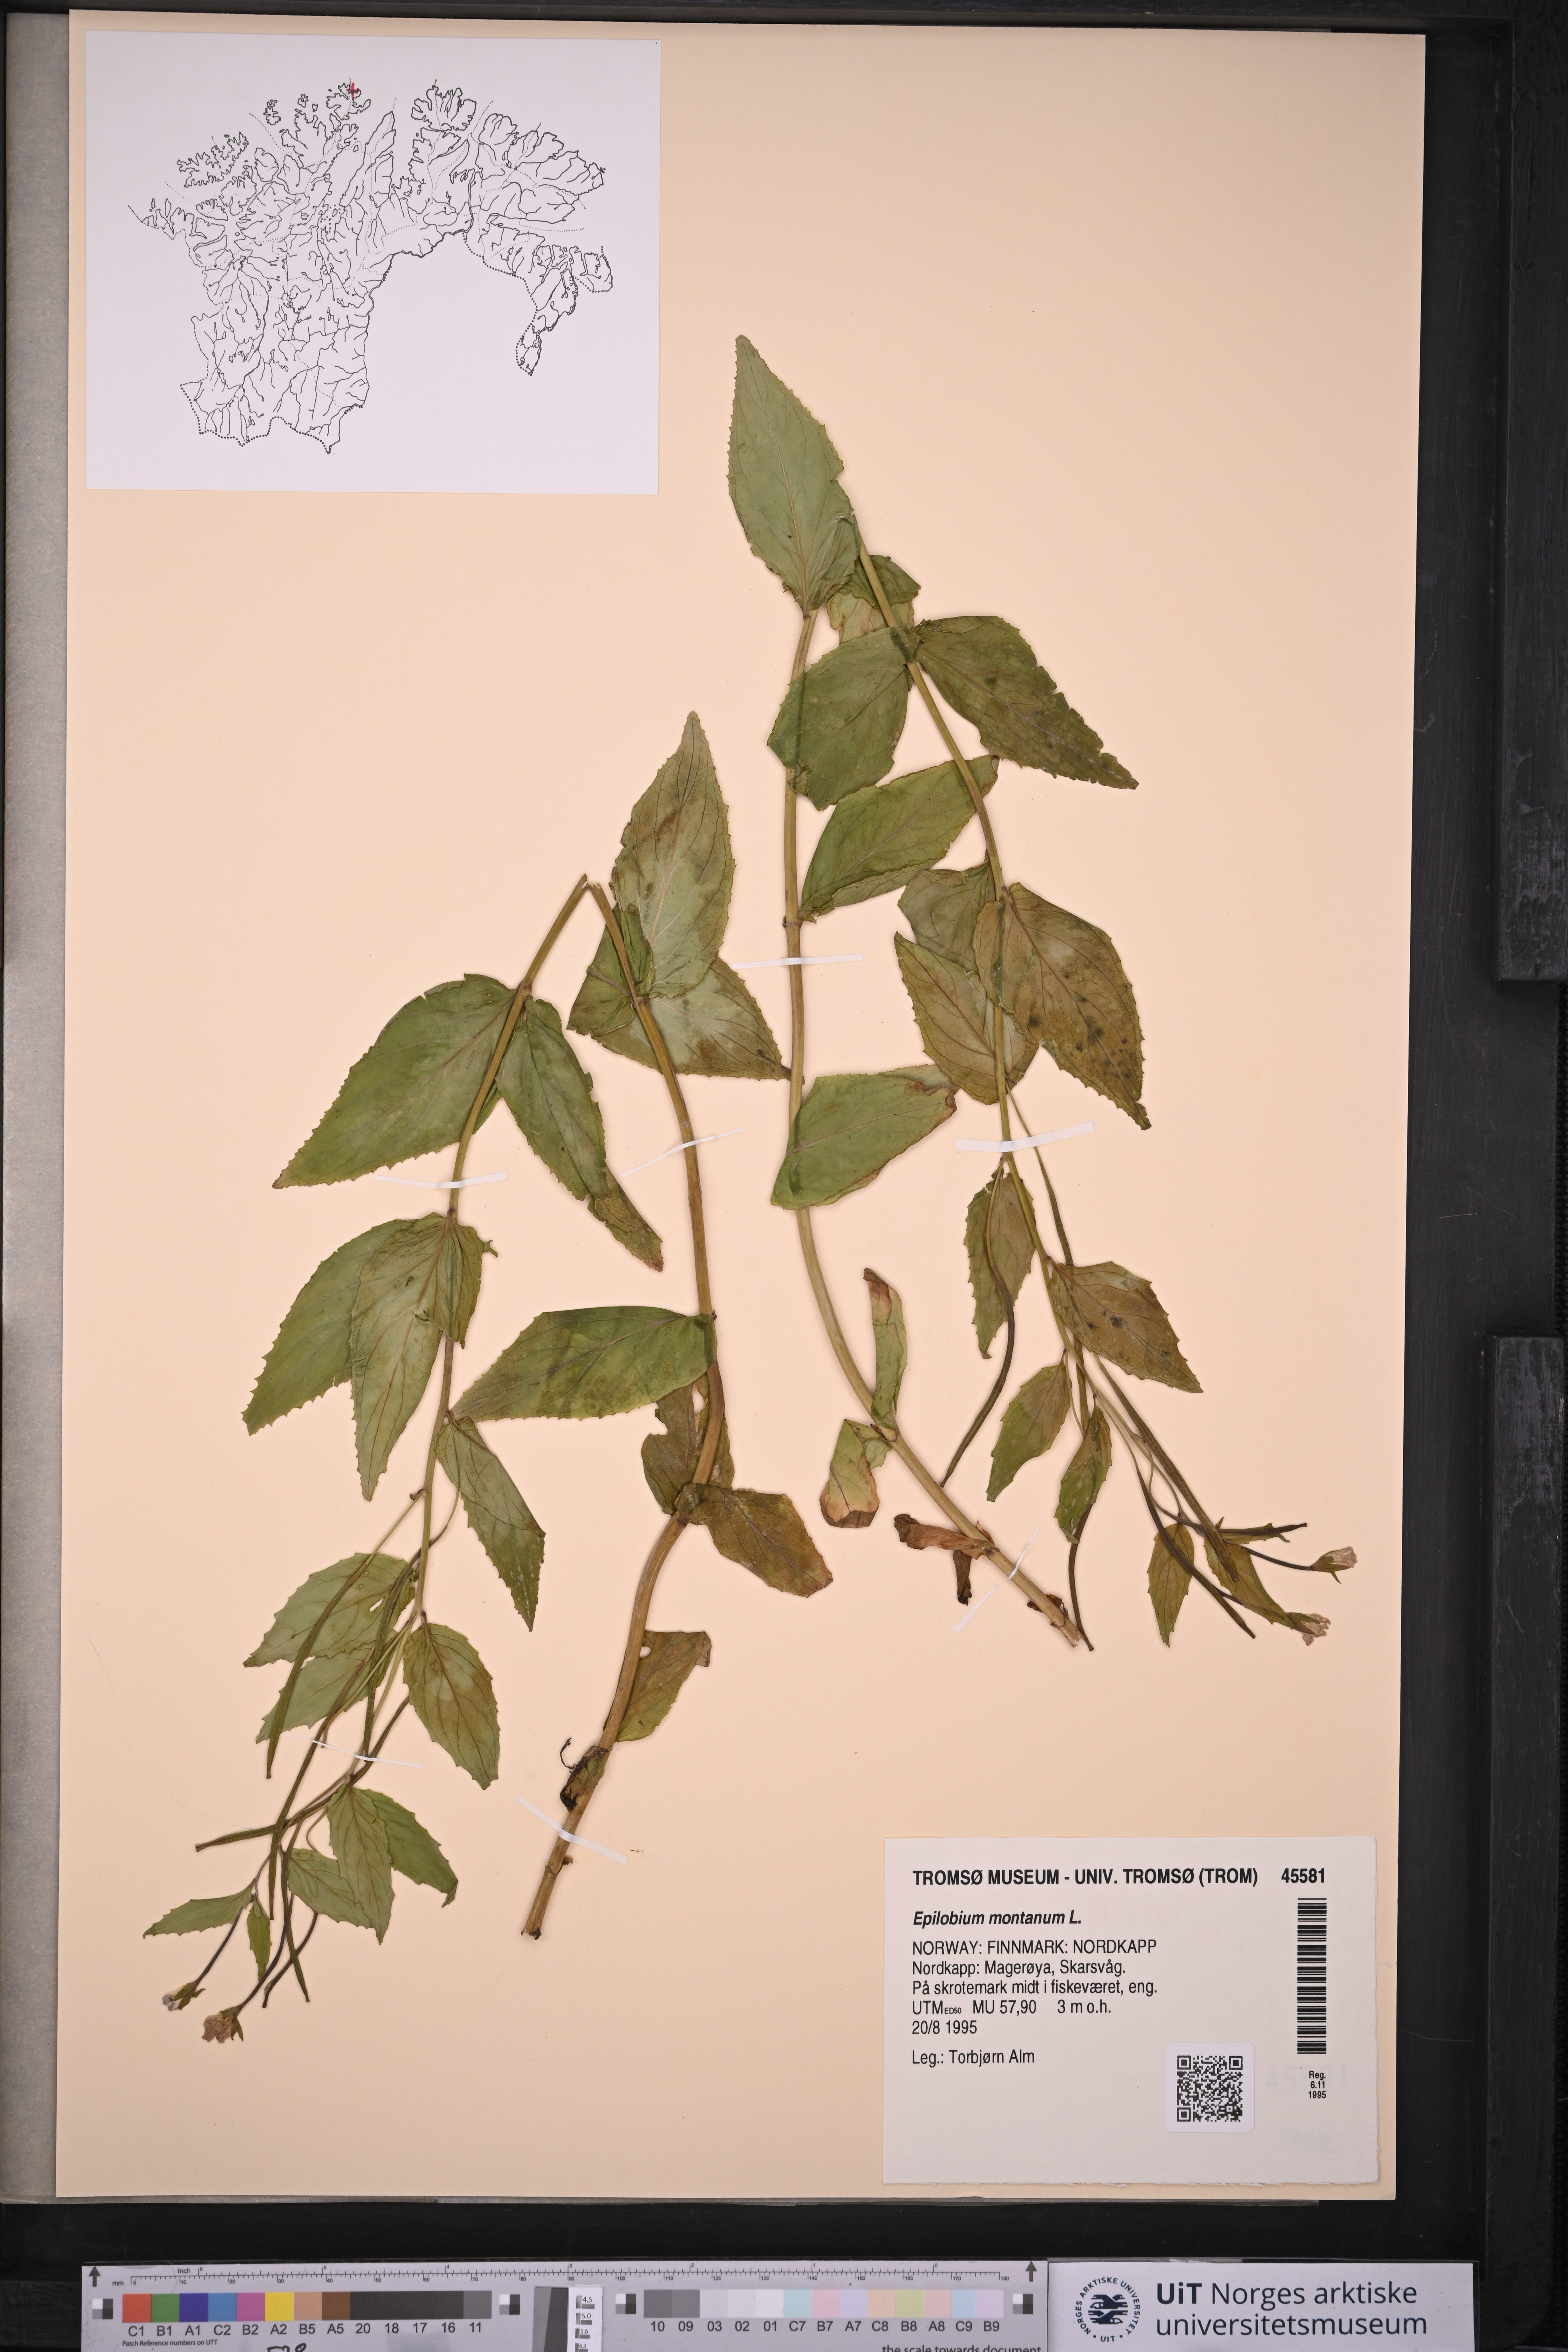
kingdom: Plantae
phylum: Tracheophyta
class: Magnoliopsida
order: Myrtales
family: Onagraceae
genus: Epilobium
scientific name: Epilobium montanum
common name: Broad-leaved willowherb
